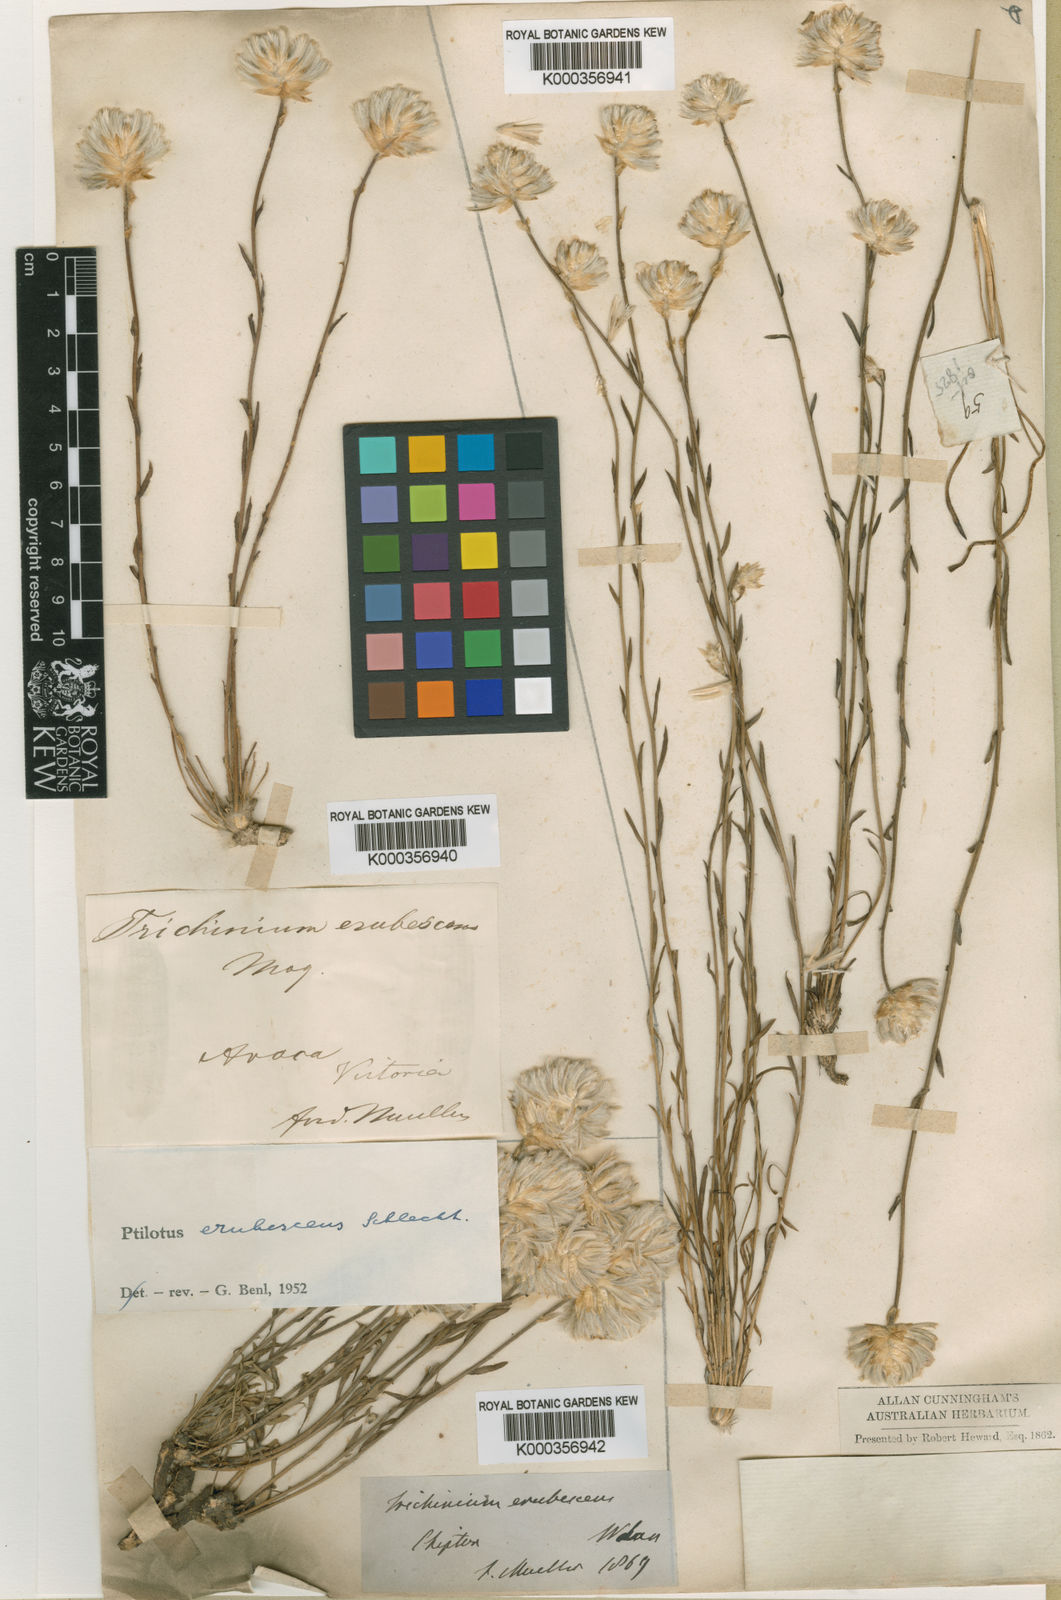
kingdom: Plantae
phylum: Tracheophyta
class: Magnoliopsida
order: Caryophyllales
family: Amaranthaceae
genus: Ptilotus
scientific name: Ptilotus erubescens
